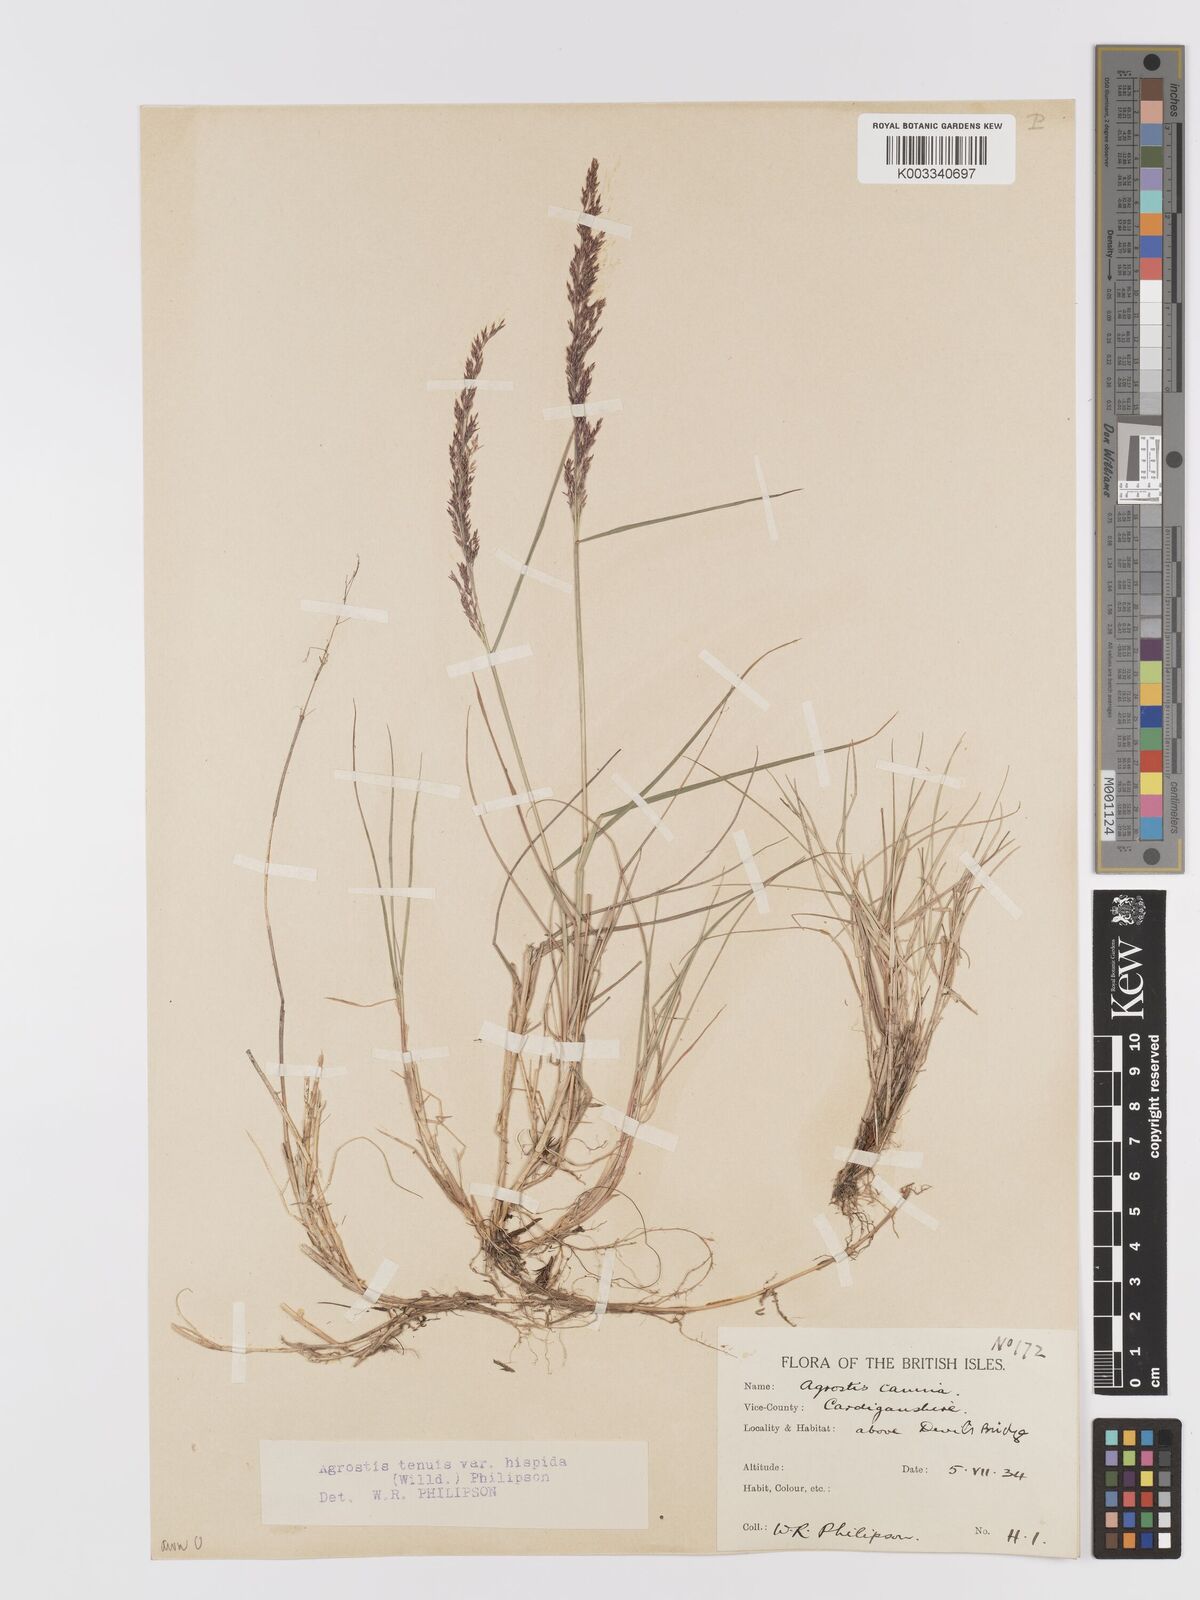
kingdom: Plantae
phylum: Tracheophyta
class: Liliopsida
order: Poales
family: Poaceae
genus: Agrostis
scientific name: Agrostis capillaris
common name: Colonial bentgrass
